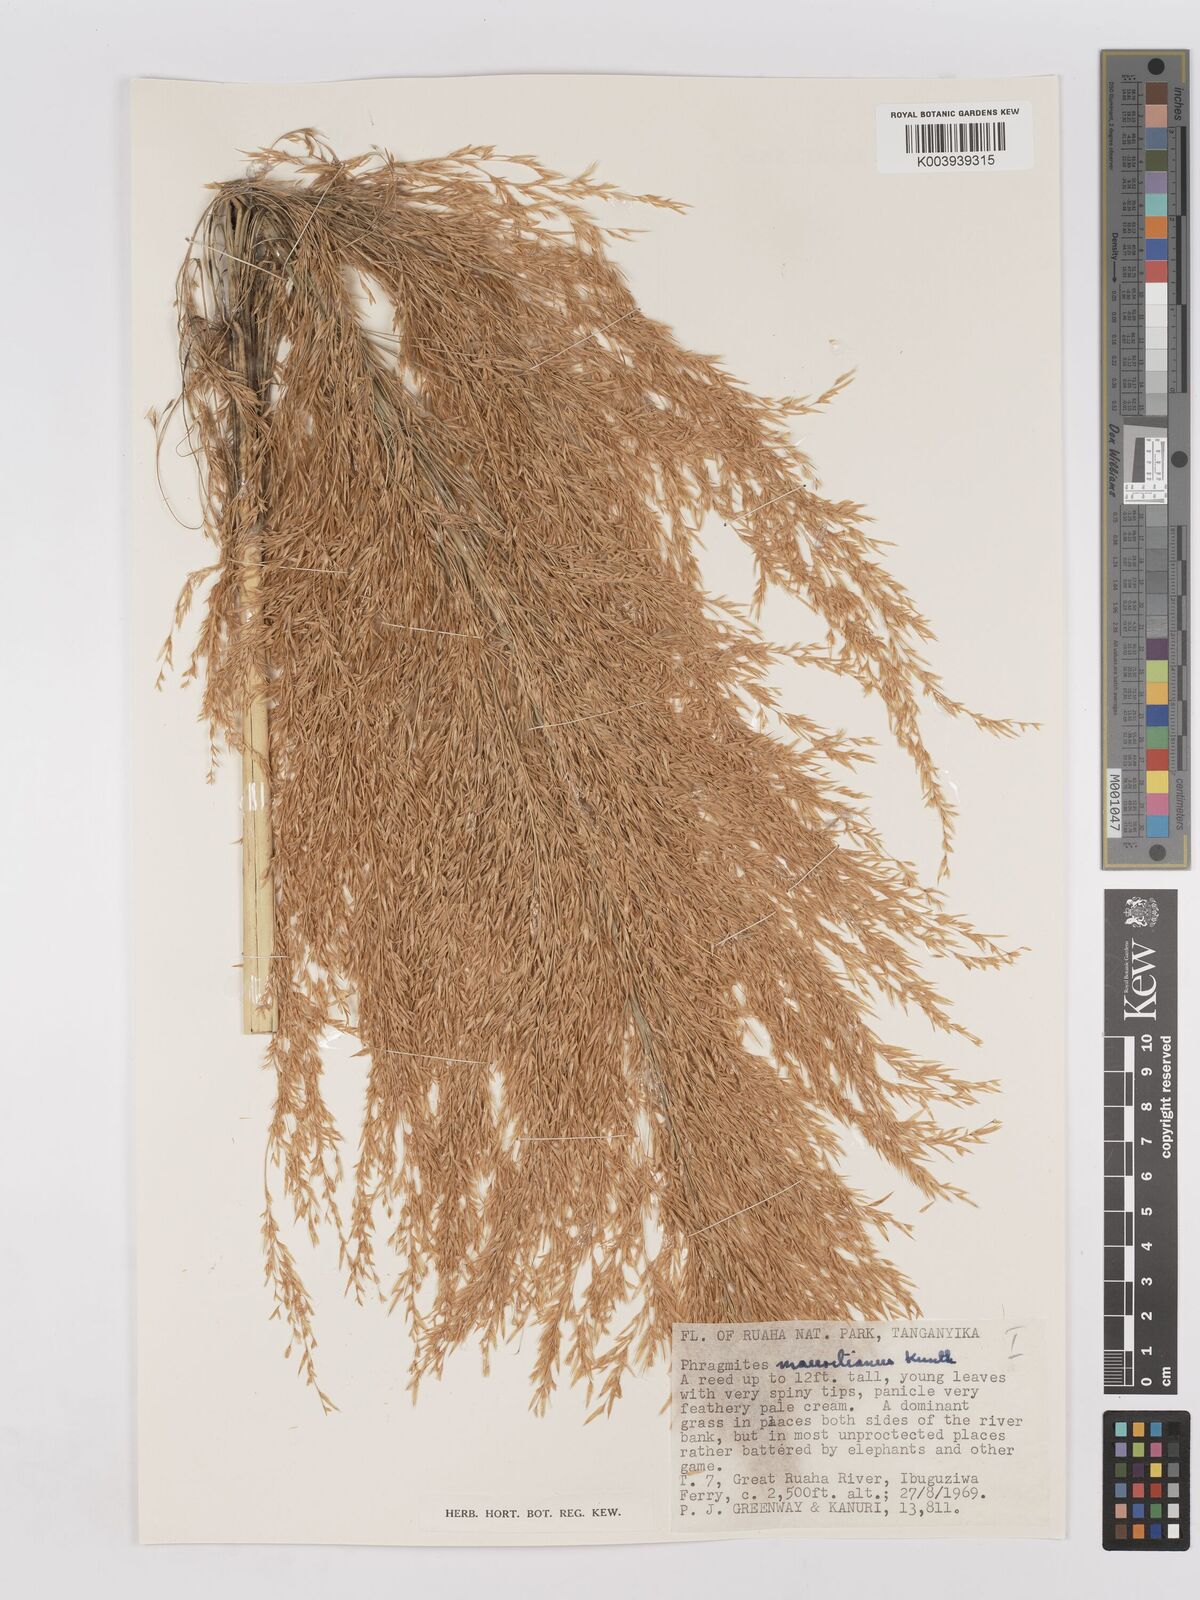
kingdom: Plantae
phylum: Tracheophyta
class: Liliopsida
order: Poales
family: Poaceae
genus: Phragmites
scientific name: Phragmites mauritianus
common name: Reed grass
